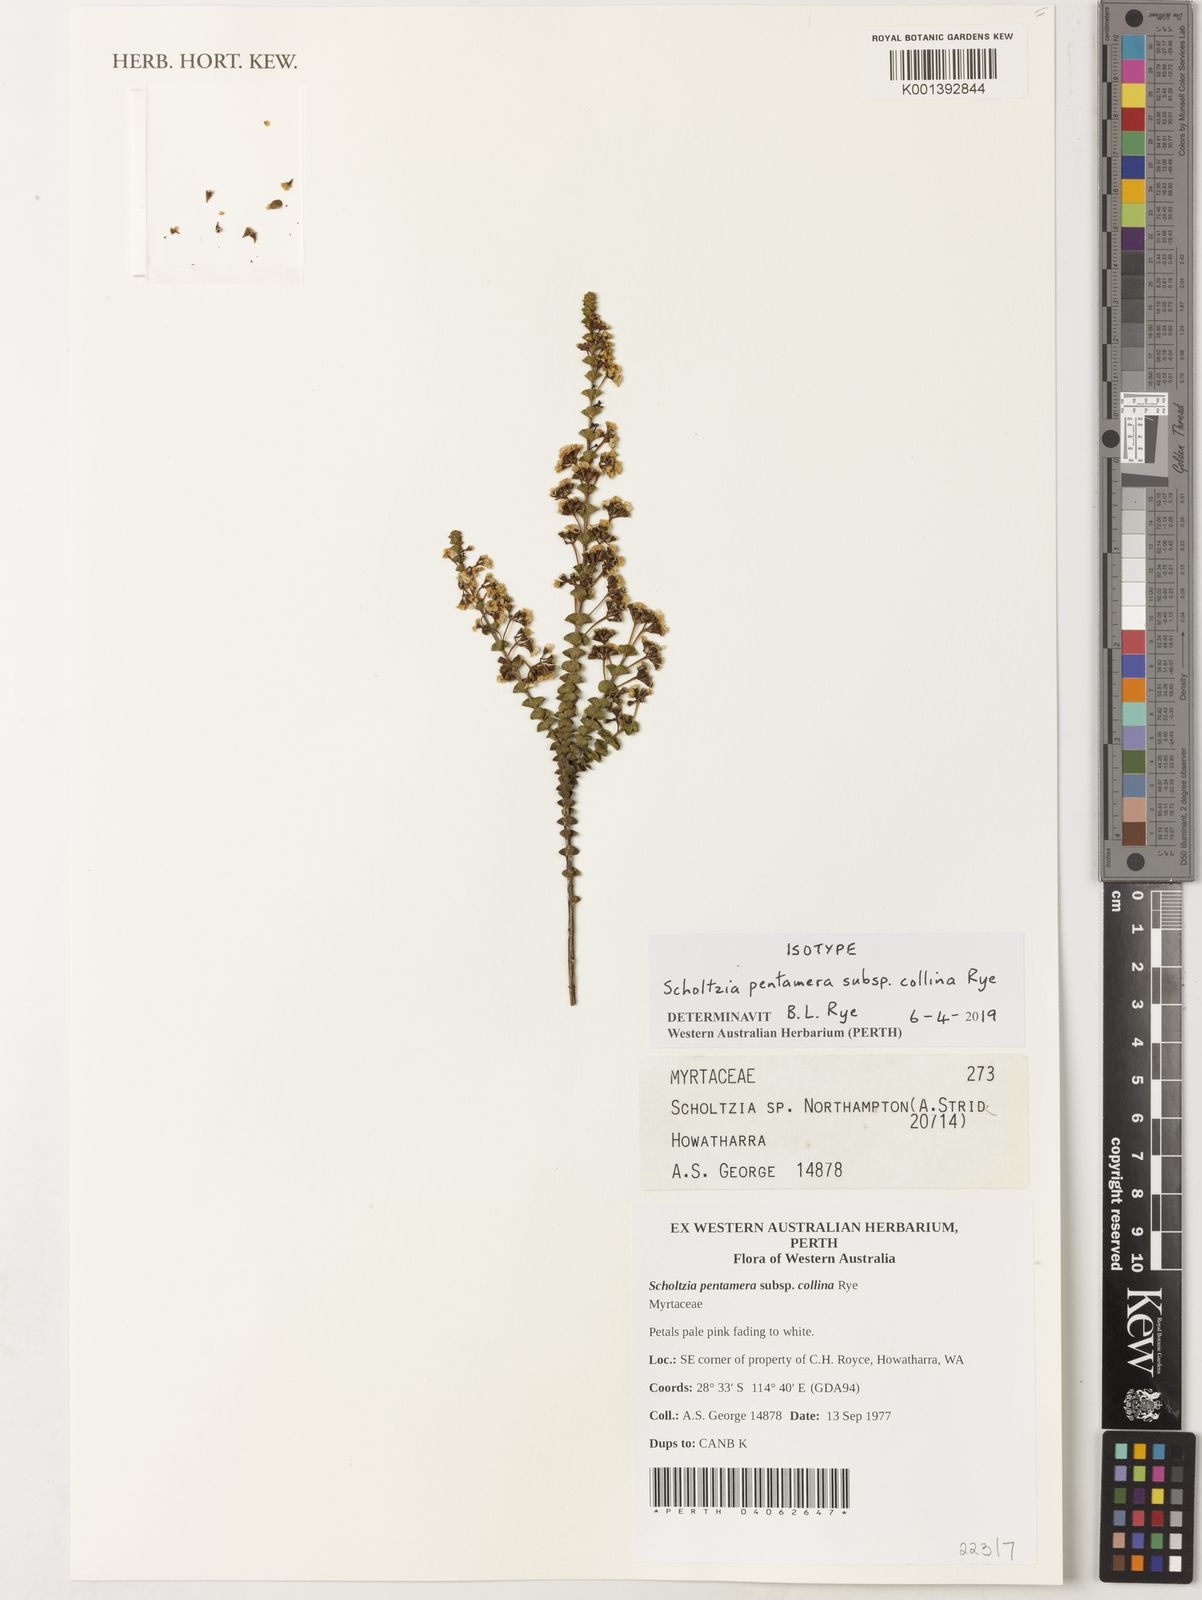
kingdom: Plantae
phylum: Tracheophyta
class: Magnoliopsida
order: Myrtales
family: Myrtaceae
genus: Scholtzia
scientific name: Scholtzia
